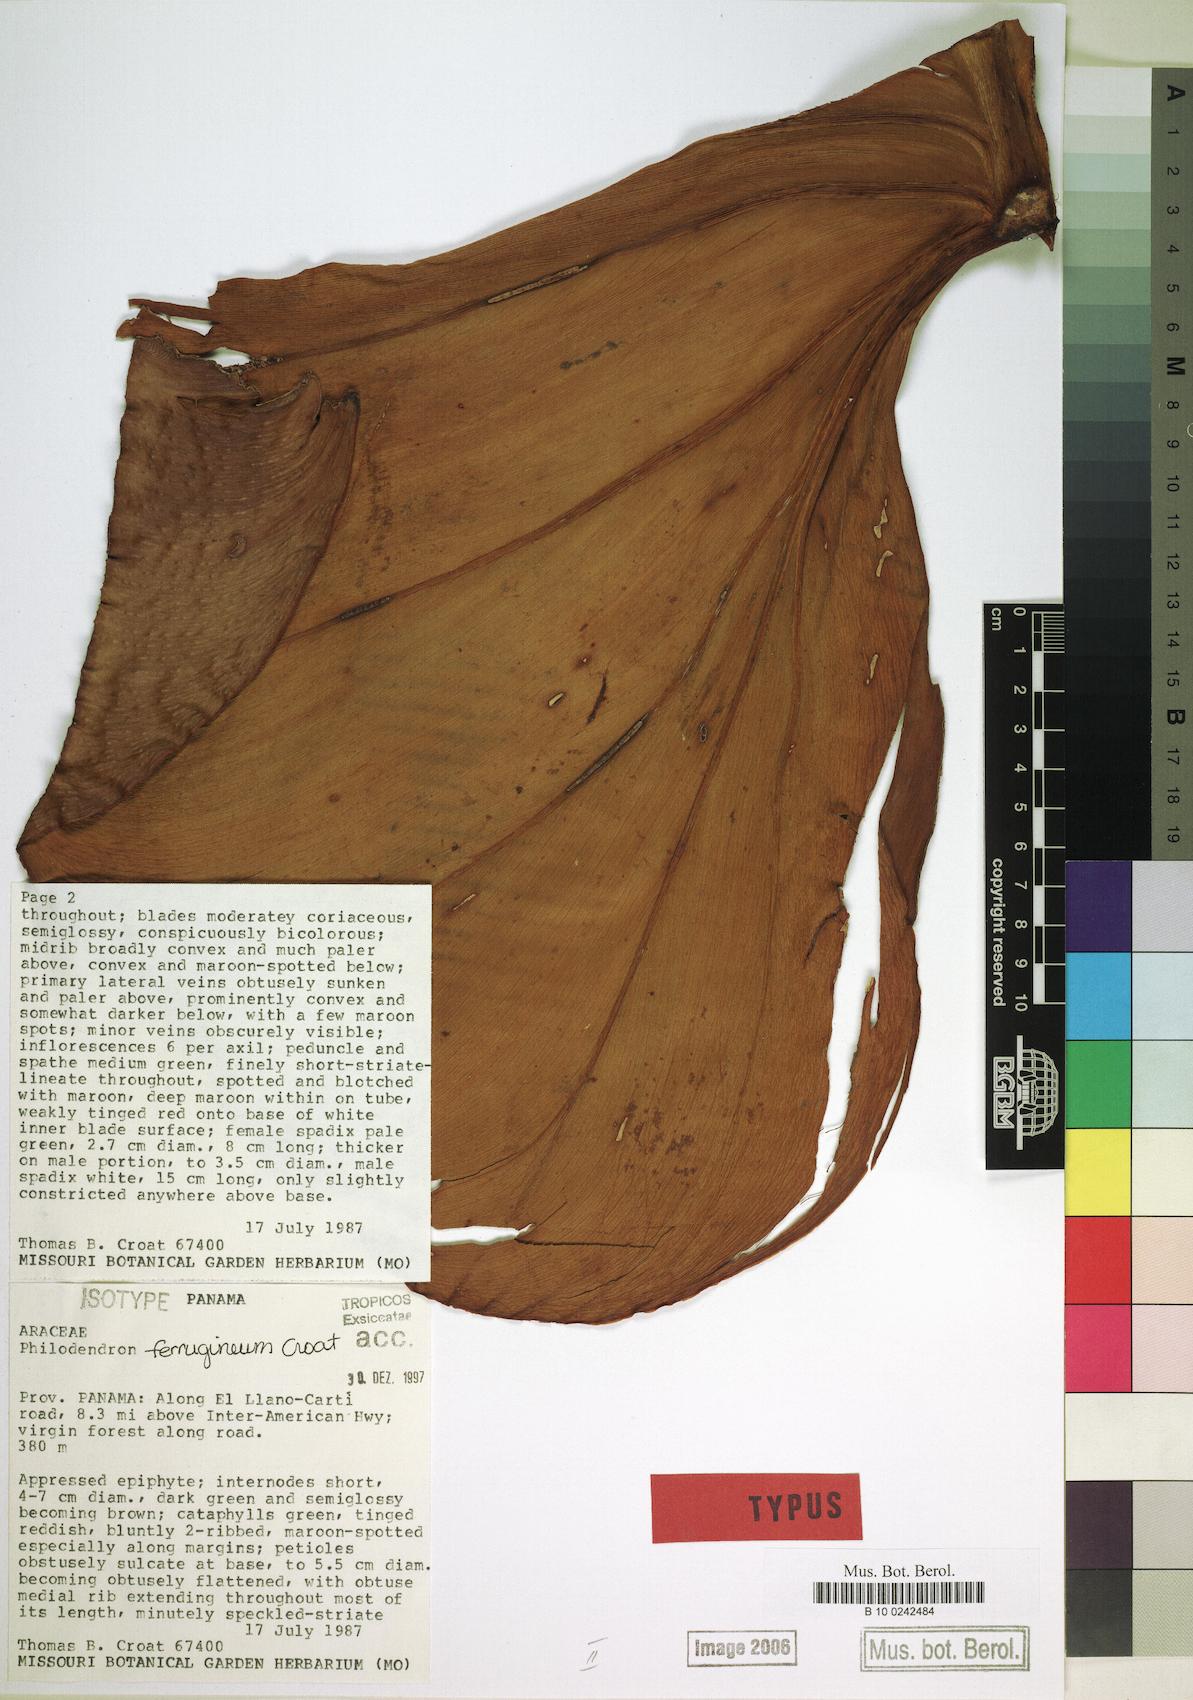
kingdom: Plantae
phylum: Tracheophyta
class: Liliopsida
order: Alismatales
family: Araceae
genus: Philodendron
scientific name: Philodendron ferrugineum
